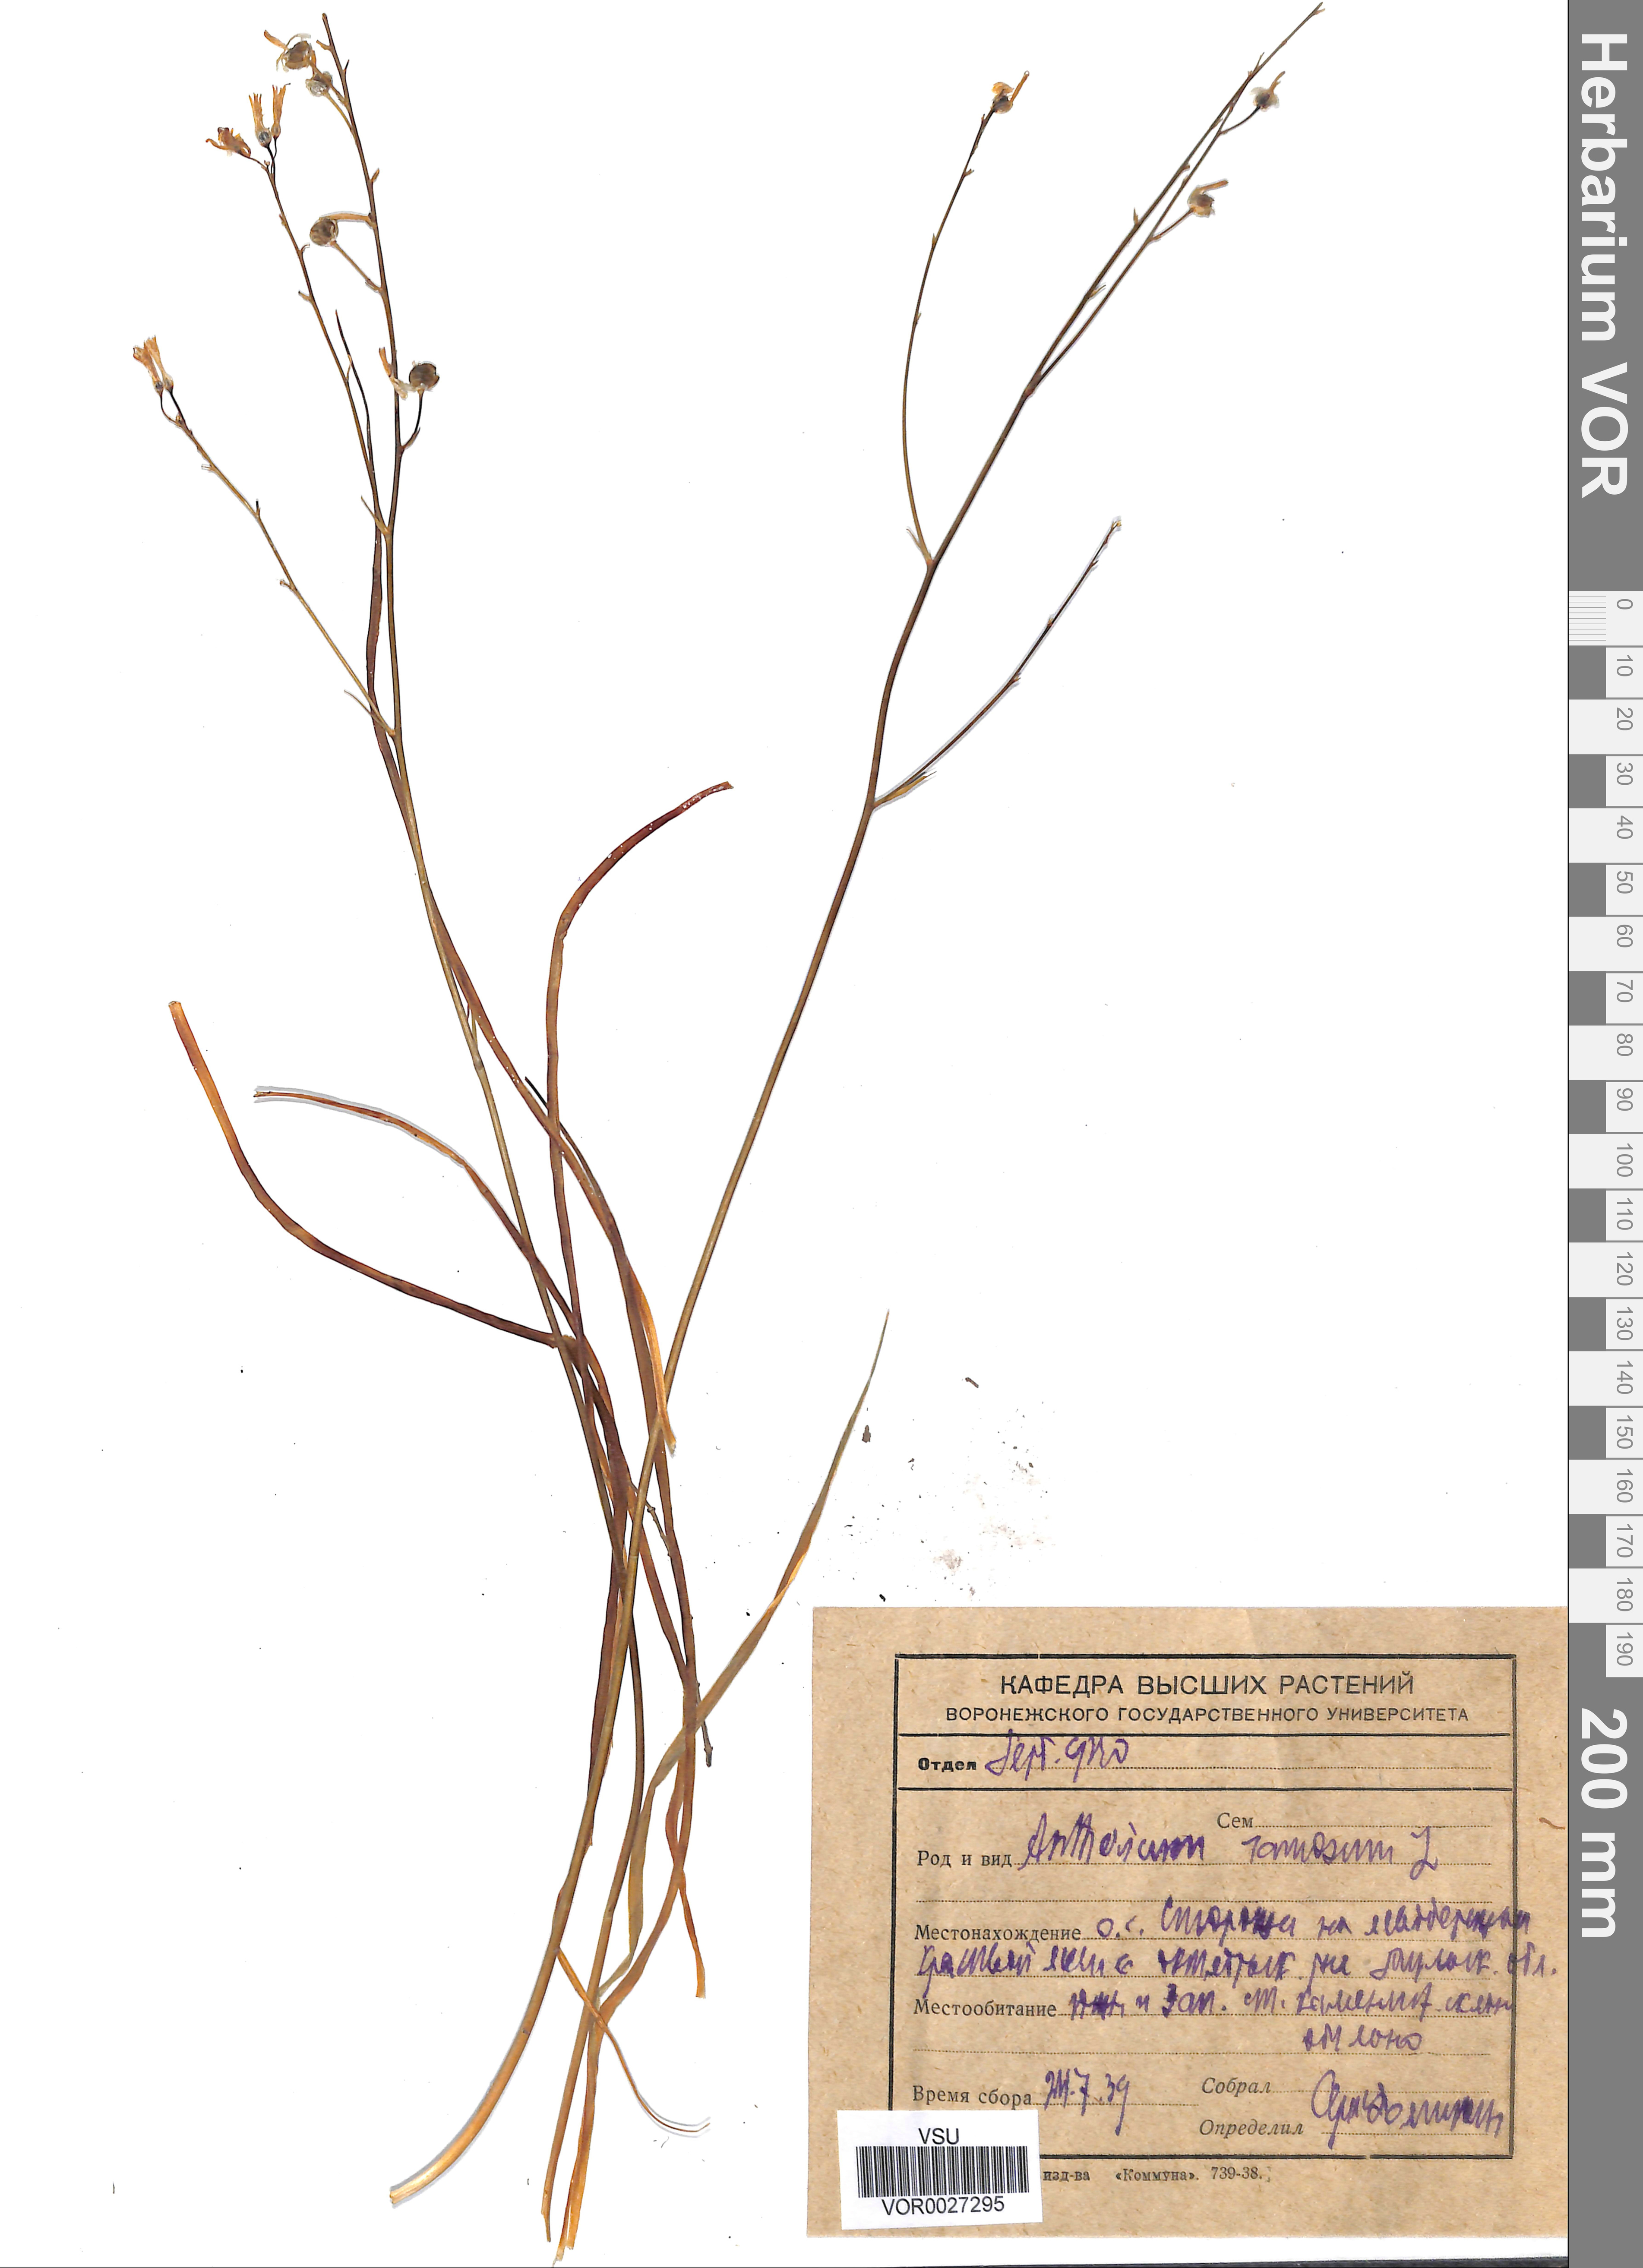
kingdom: Plantae
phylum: Tracheophyta
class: Liliopsida
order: Asparagales
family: Asparagaceae
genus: Anthericum
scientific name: Anthericum ramosum
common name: Branched st. bernard's-lily
